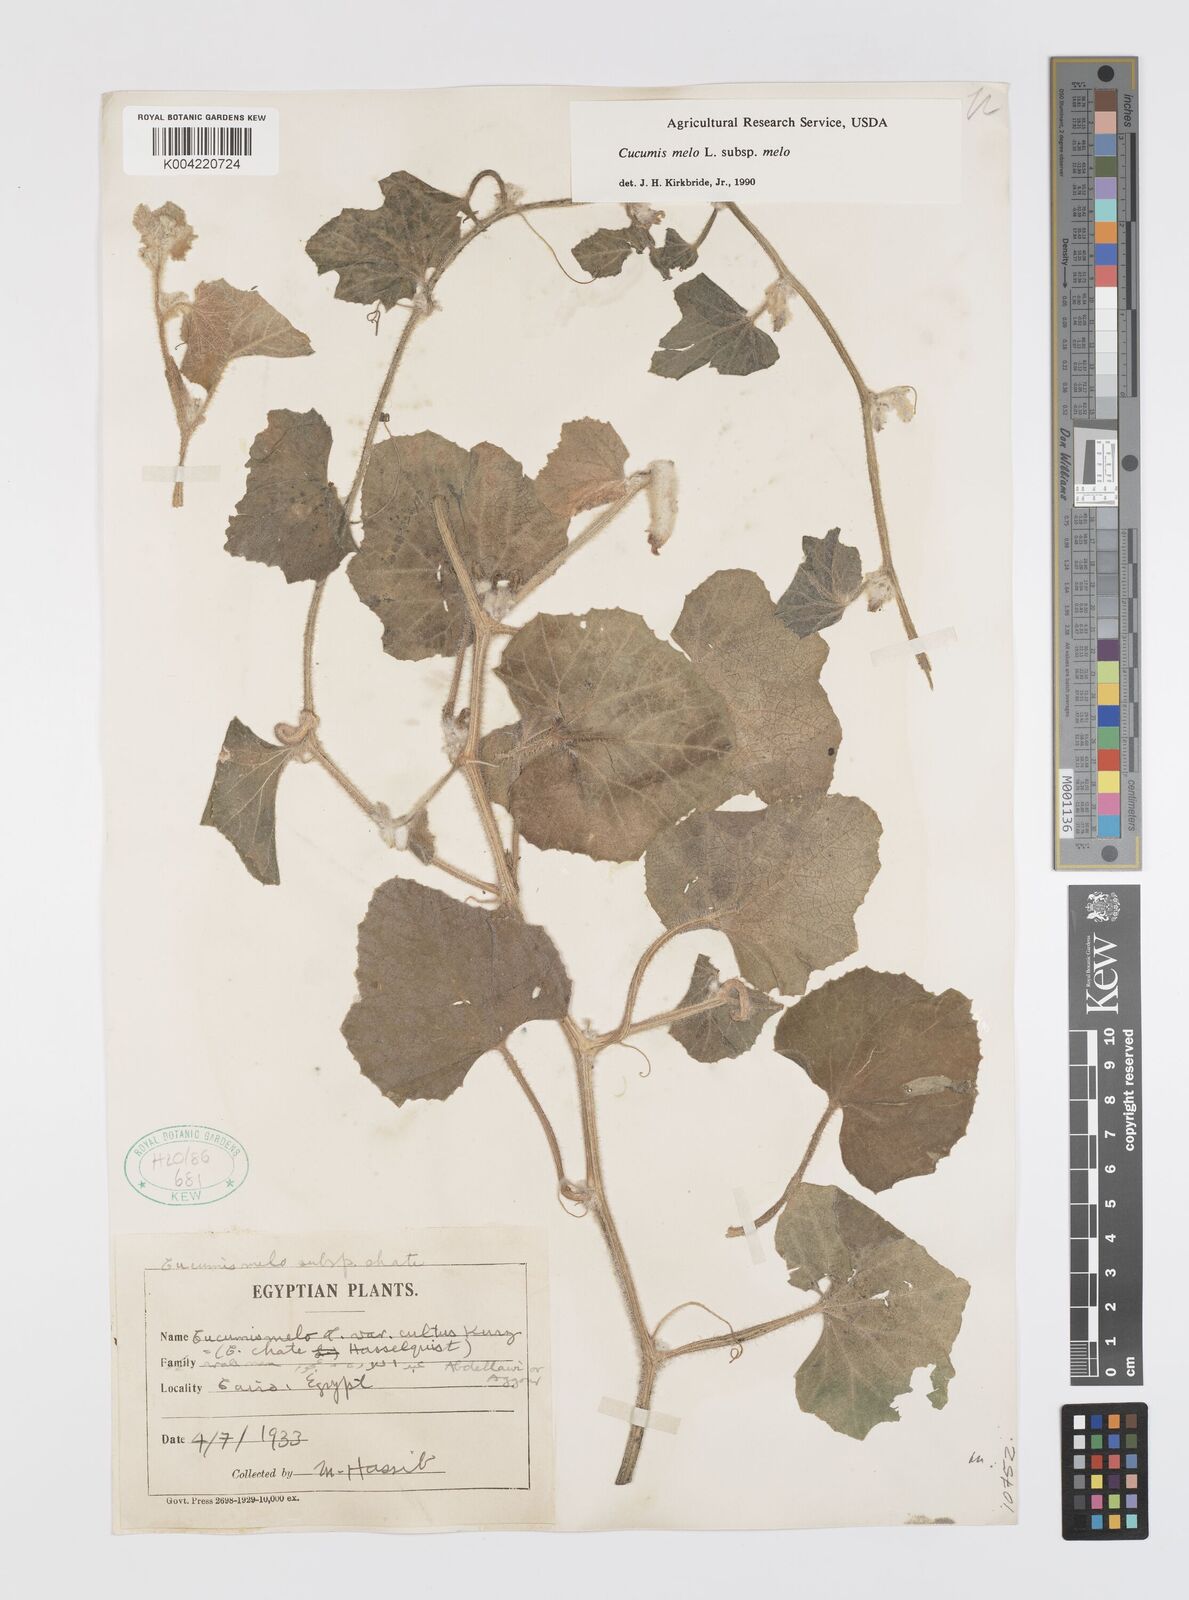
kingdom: Plantae
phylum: Tracheophyta
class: Magnoliopsida
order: Cucurbitales
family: Cucurbitaceae
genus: Cucumis
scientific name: Cucumis melo
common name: Melon
